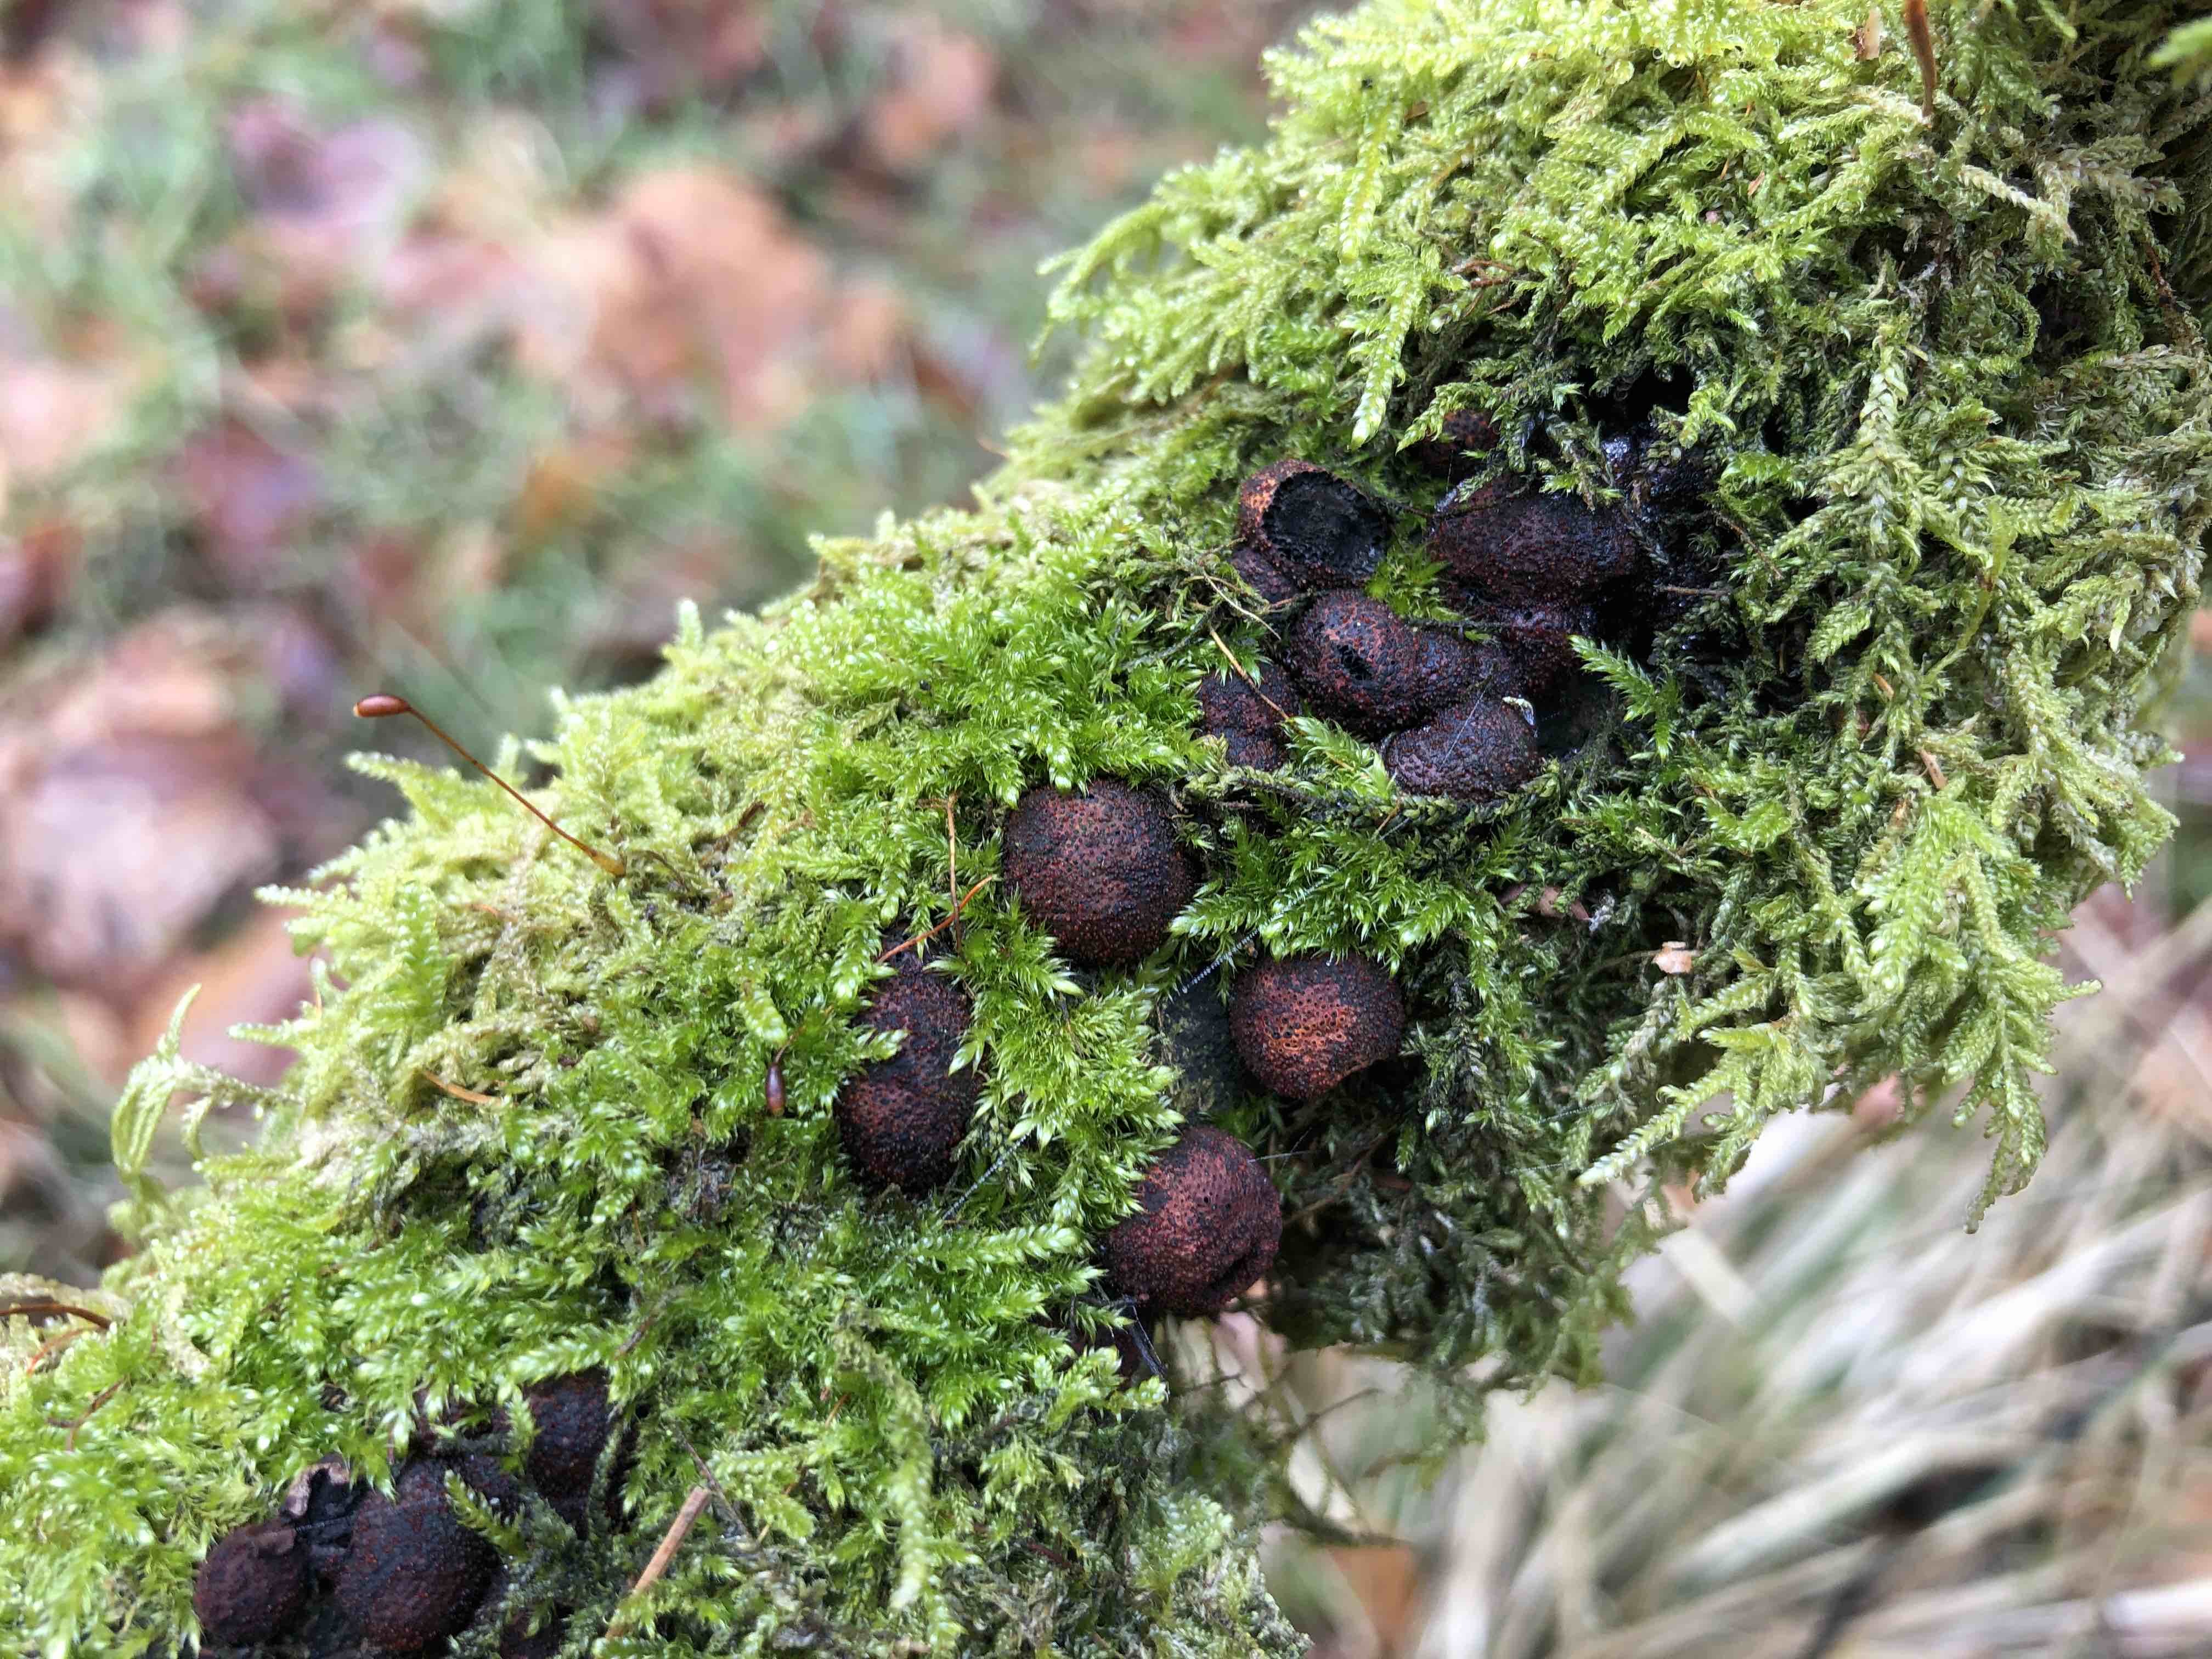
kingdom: Fungi
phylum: Ascomycota
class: Sordariomycetes
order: Xylariales
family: Hypoxylaceae
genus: Hypoxylon
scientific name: Hypoxylon fragiforme
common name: kuljordbær
